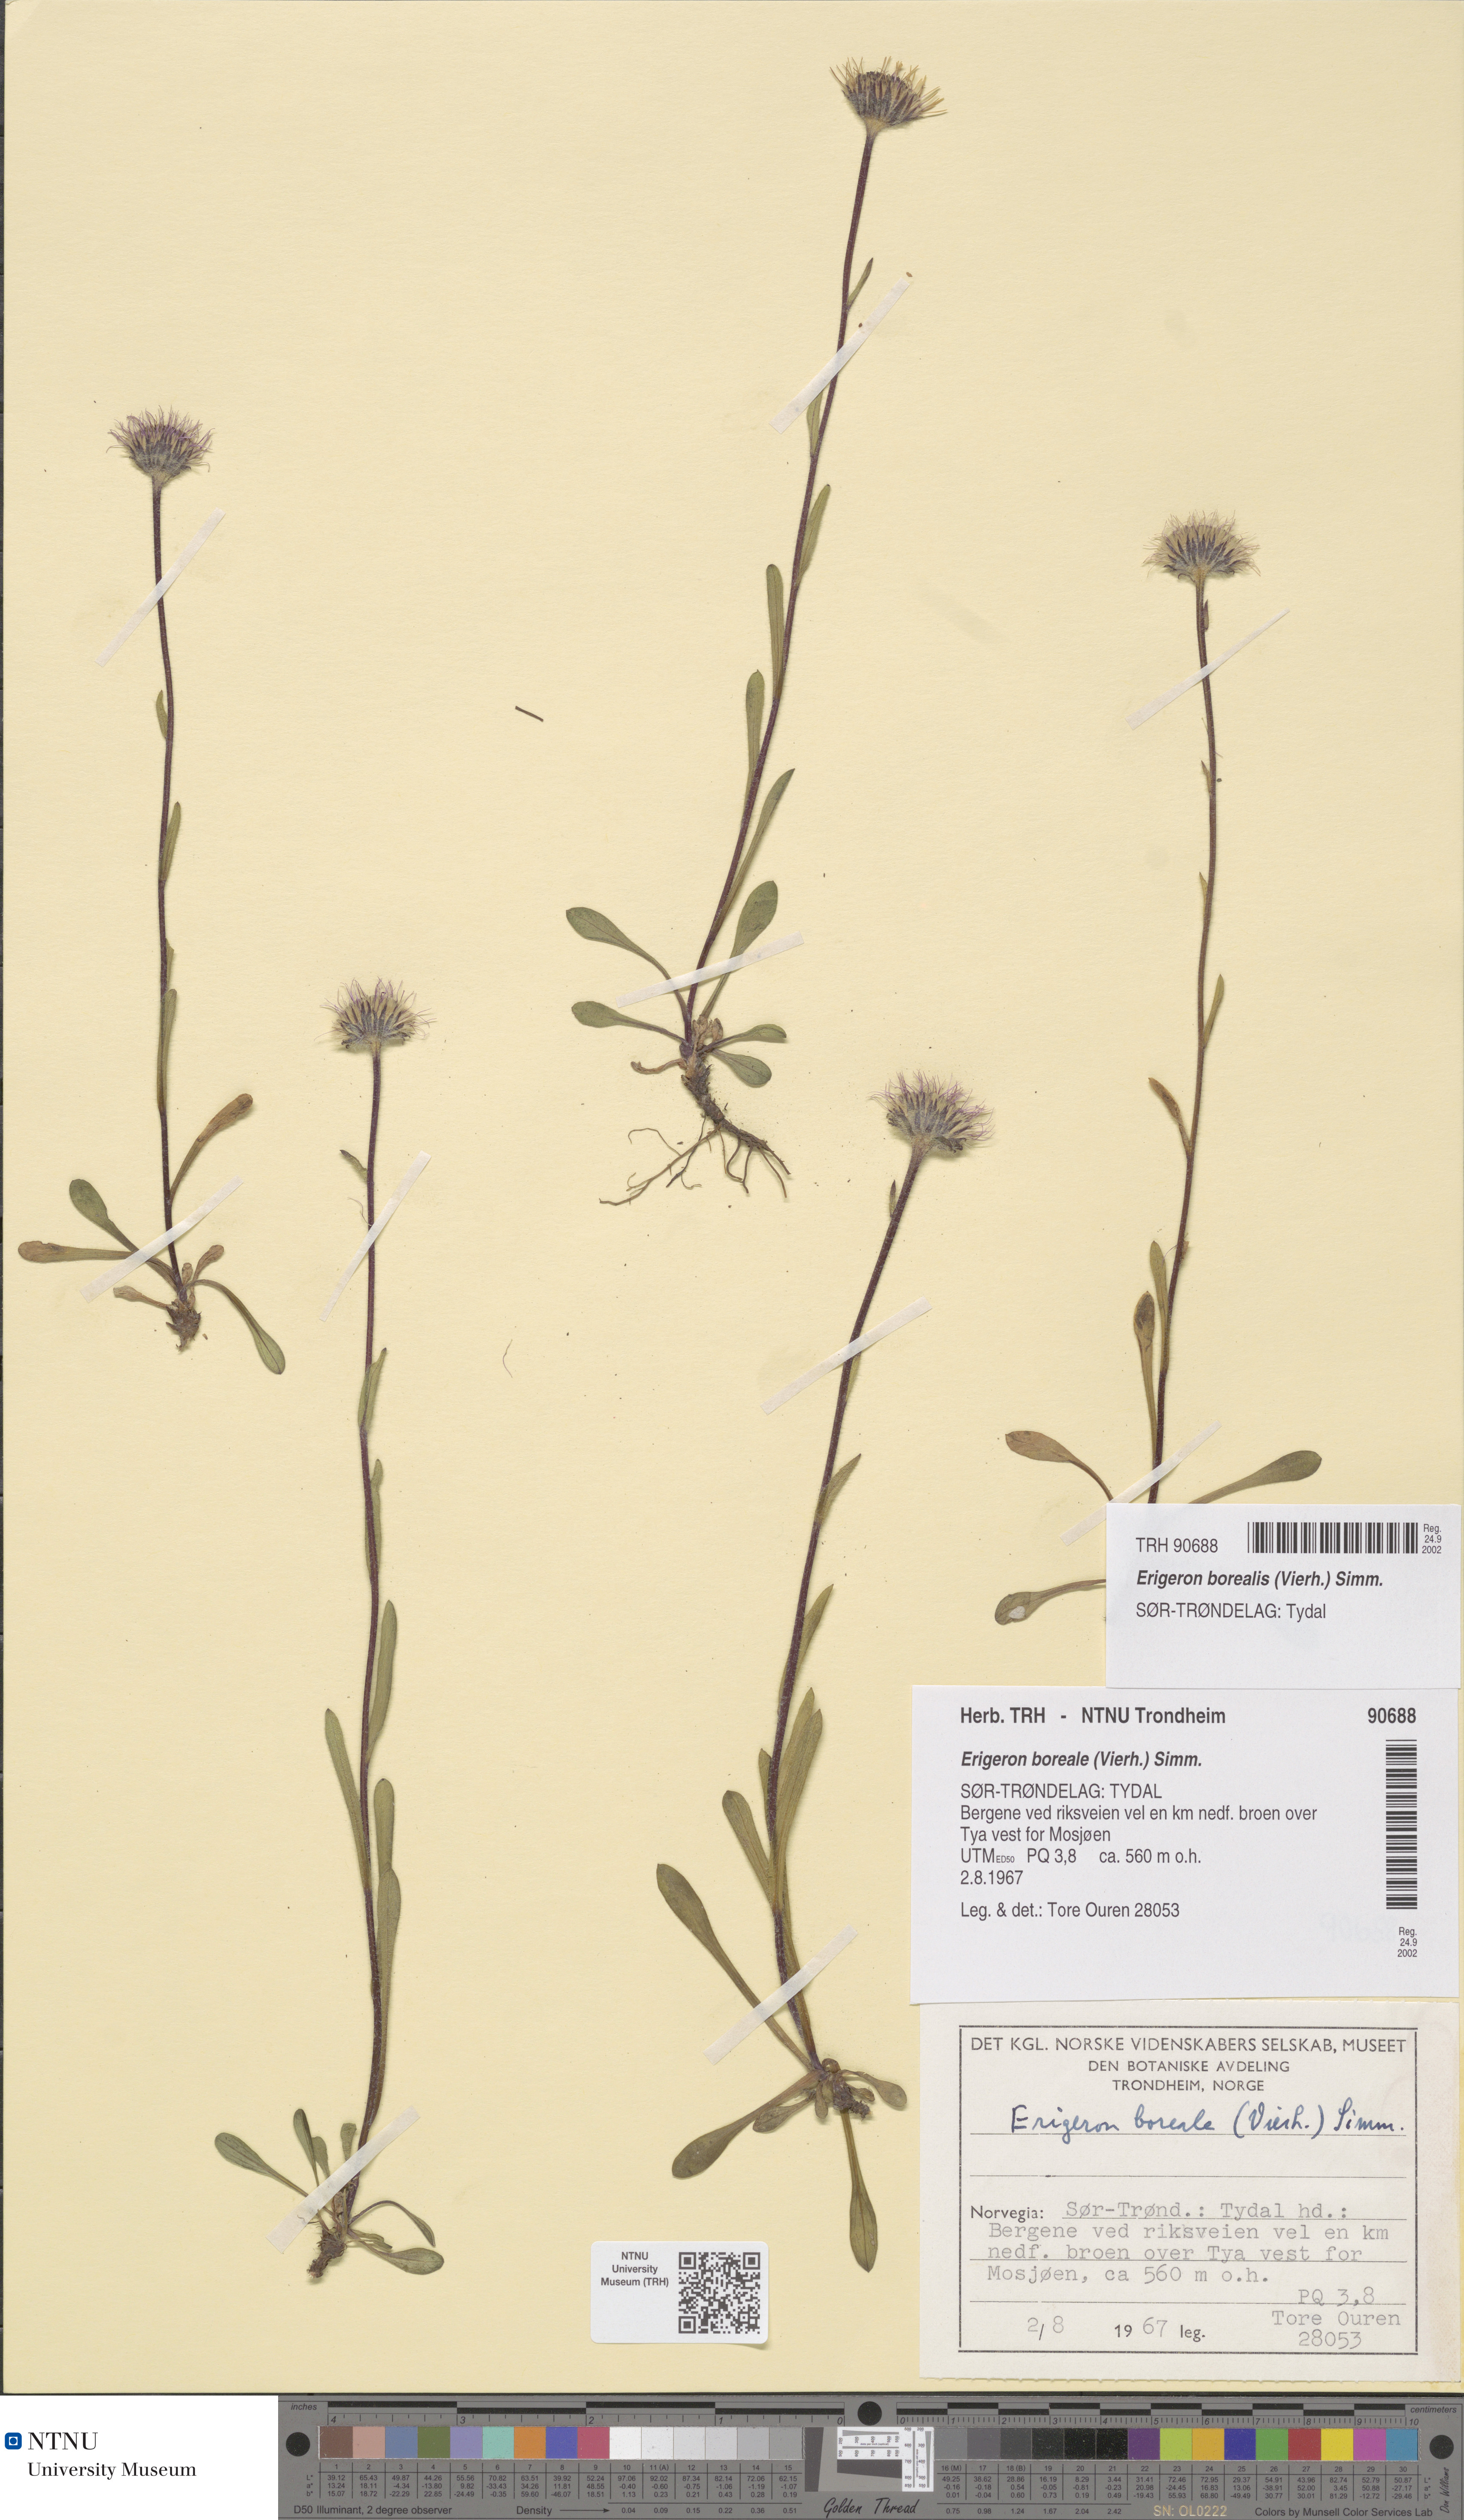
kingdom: Plantae
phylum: Tracheophyta
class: Magnoliopsida
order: Asterales
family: Asteraceae
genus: Erigeron
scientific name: Erigeron borealis
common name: Alpine fleabane
